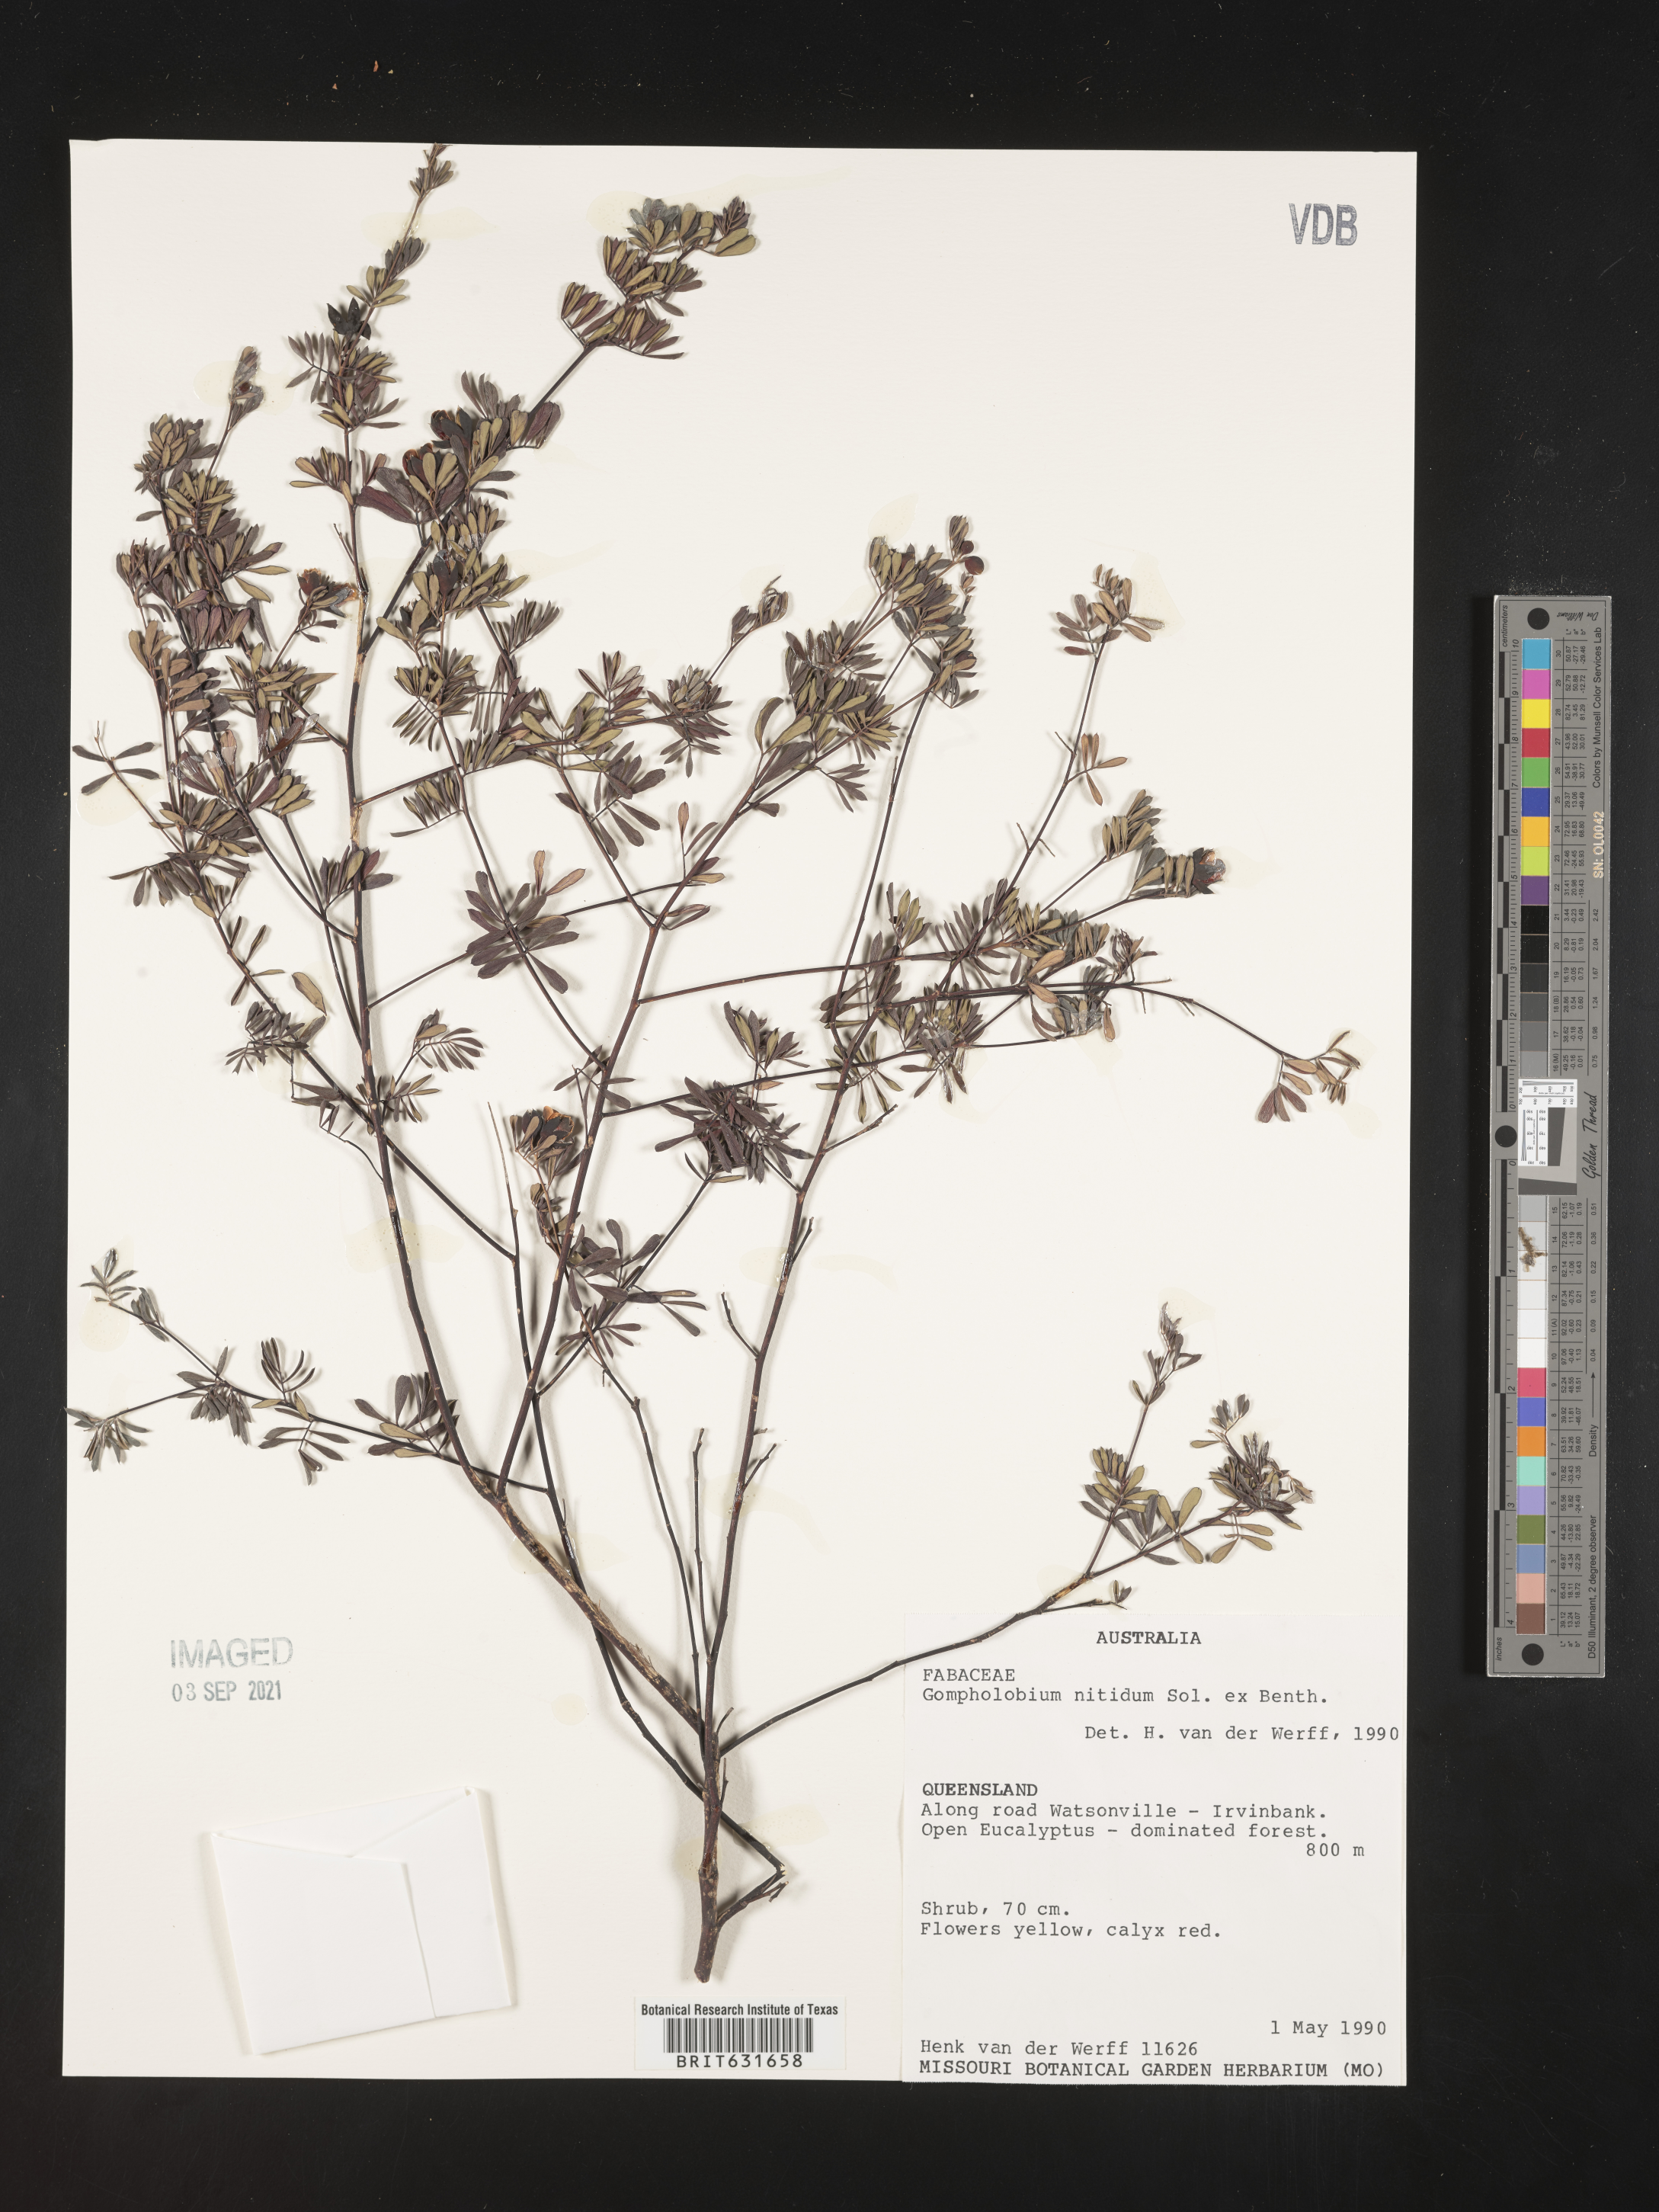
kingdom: Plantae
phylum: Tracheophyta
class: Magnoliopsida
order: Fabales
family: Fabaceae
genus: Gompholobium
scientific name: Gompholobium
